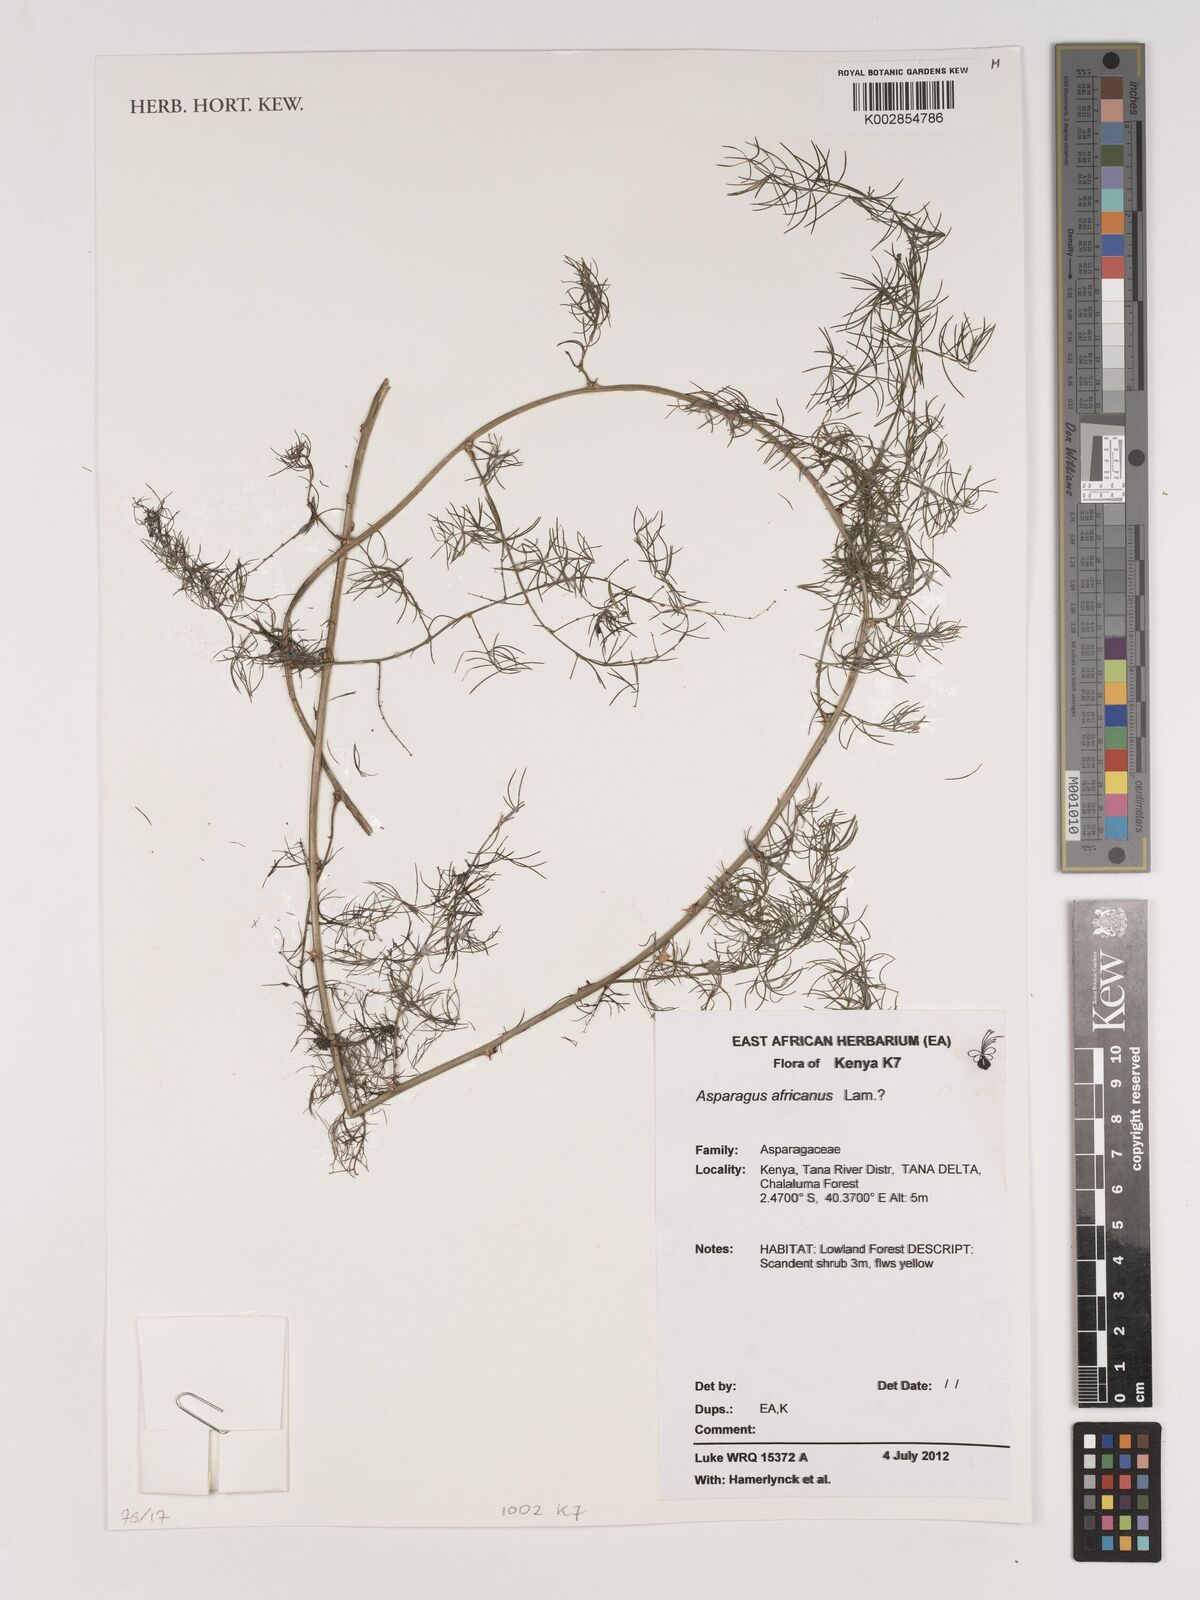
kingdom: Plantae
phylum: Tracheophyta
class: Liliopsida
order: Asparagales
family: Asparagaceae
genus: Asparagus
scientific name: Asparagus africanus
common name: Asparagus-fern
